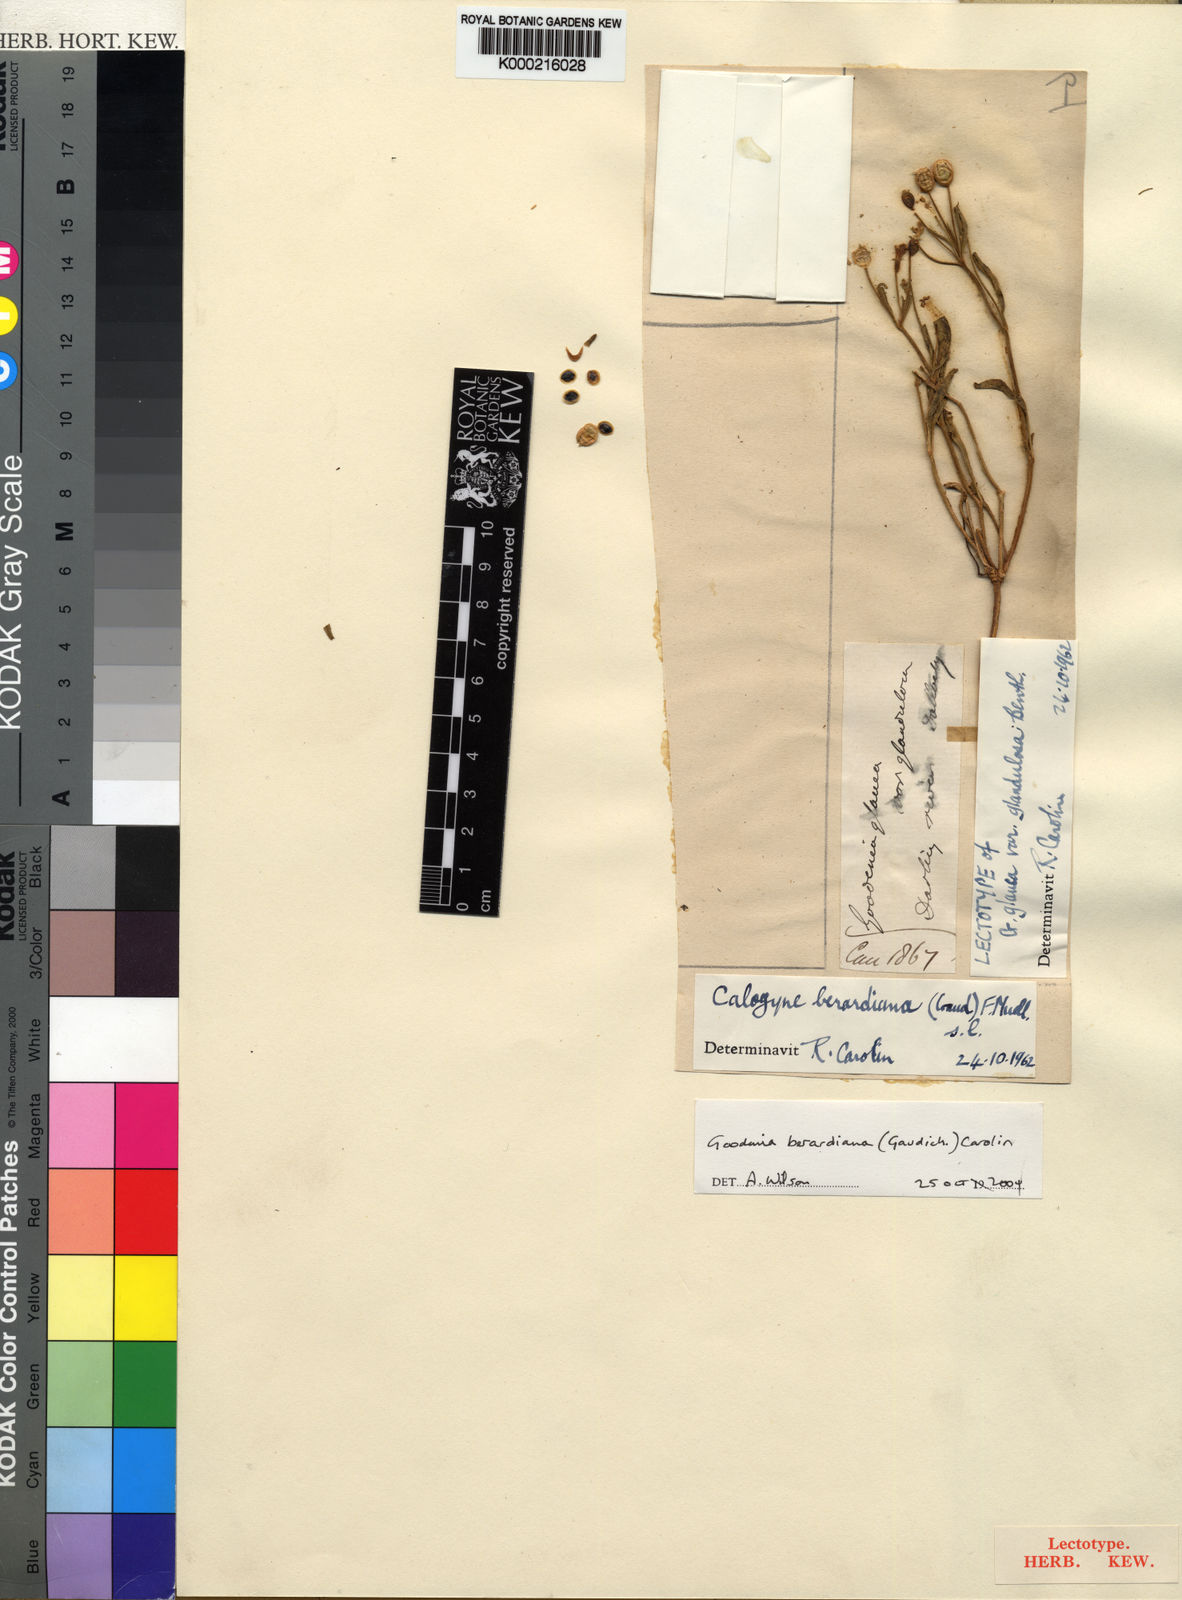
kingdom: Plantae
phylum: Tracheophyta
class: Magnoliopsida
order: Asterales
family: Goodeniaceae
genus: Goodenia
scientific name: Goodenia berardiana
